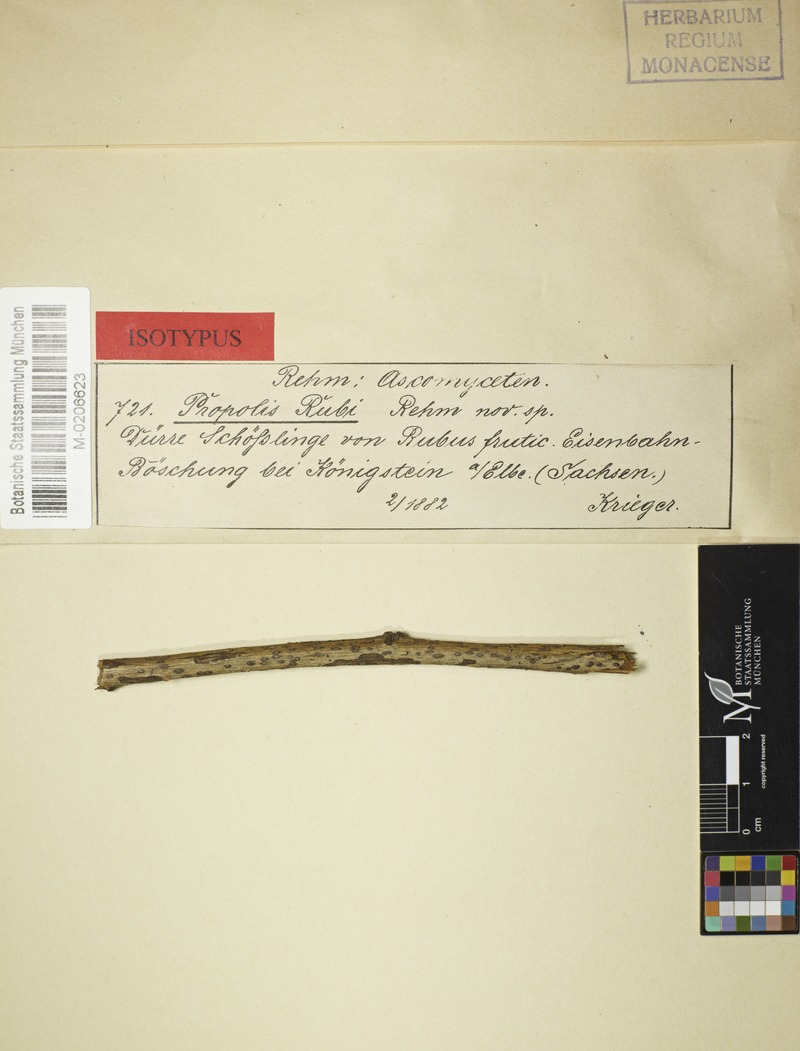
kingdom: Fungi
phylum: Ascomycota
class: Leotiomycetes
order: Phacidiales
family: Phacidiaceae
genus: Pseudophacidium
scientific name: Pseudophacidium
